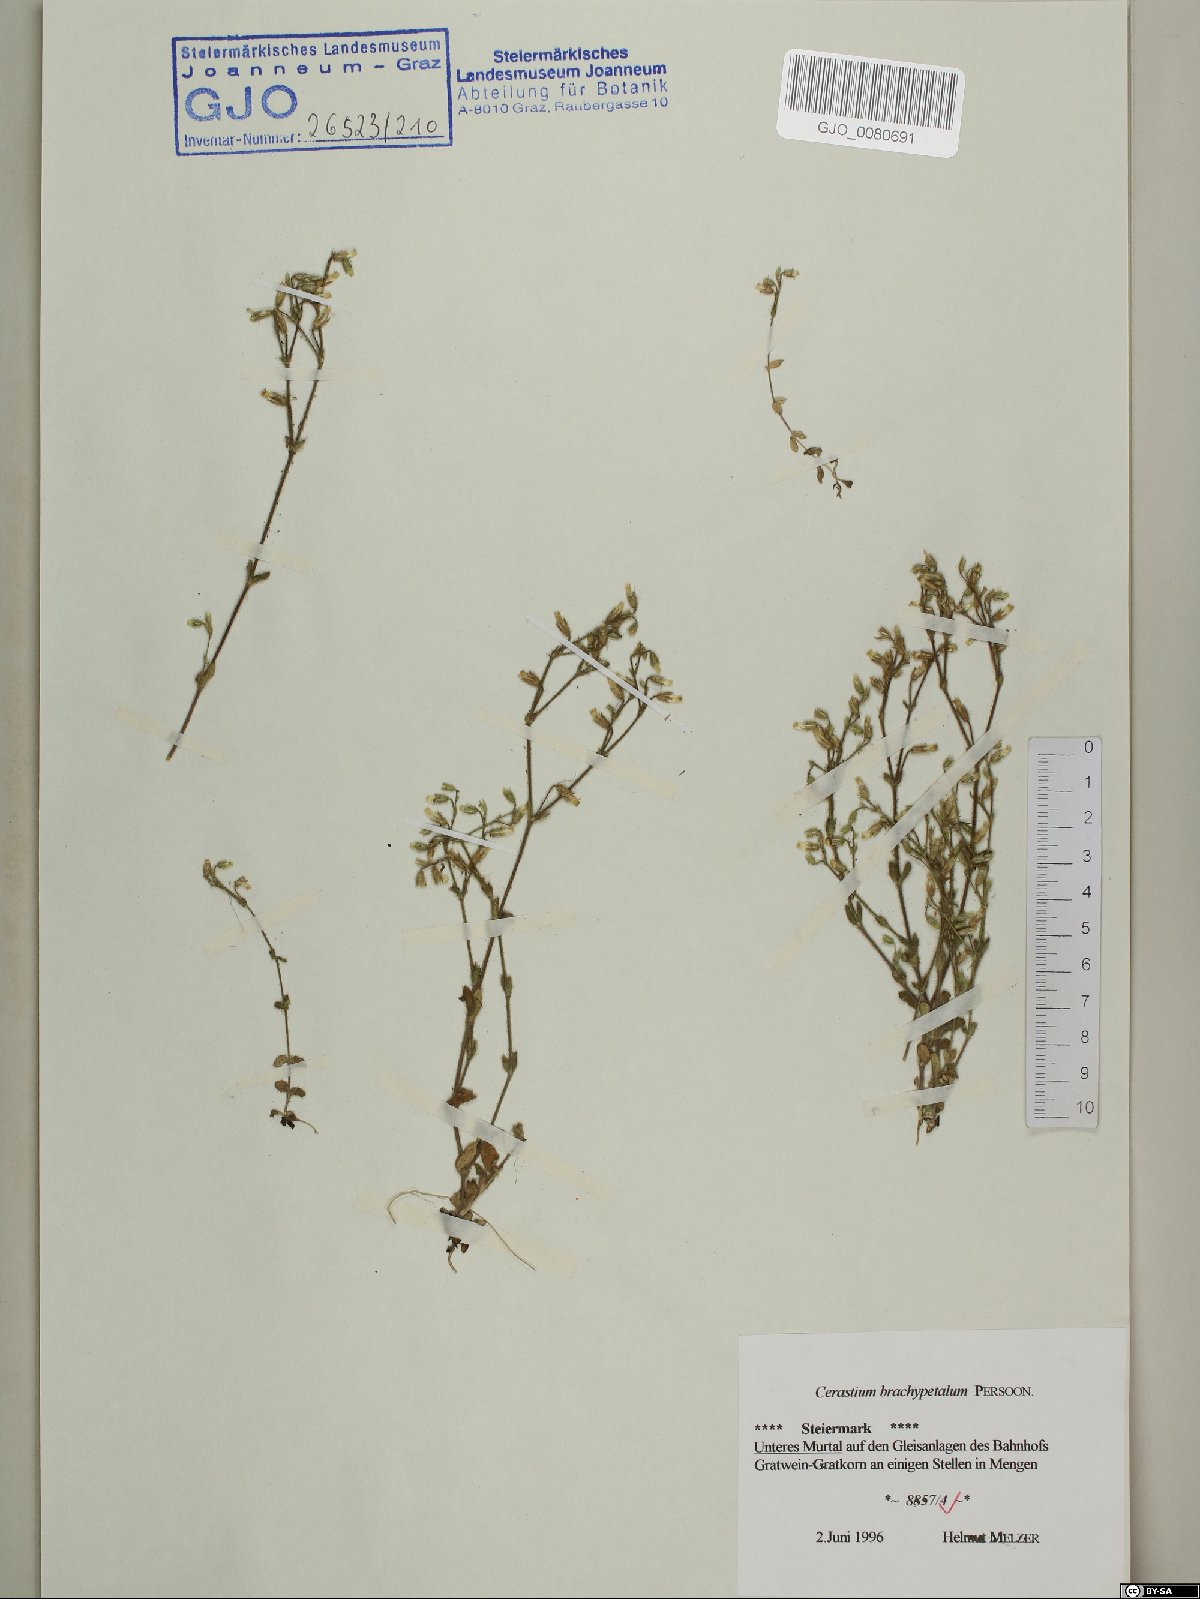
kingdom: Plantae
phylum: Tracheophyta
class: Magnoliopsida
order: Caryophyllales
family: Caryophyllaceae
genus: Cerastium
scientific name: Cerastium brachypetalum
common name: Grey mouse-ear
